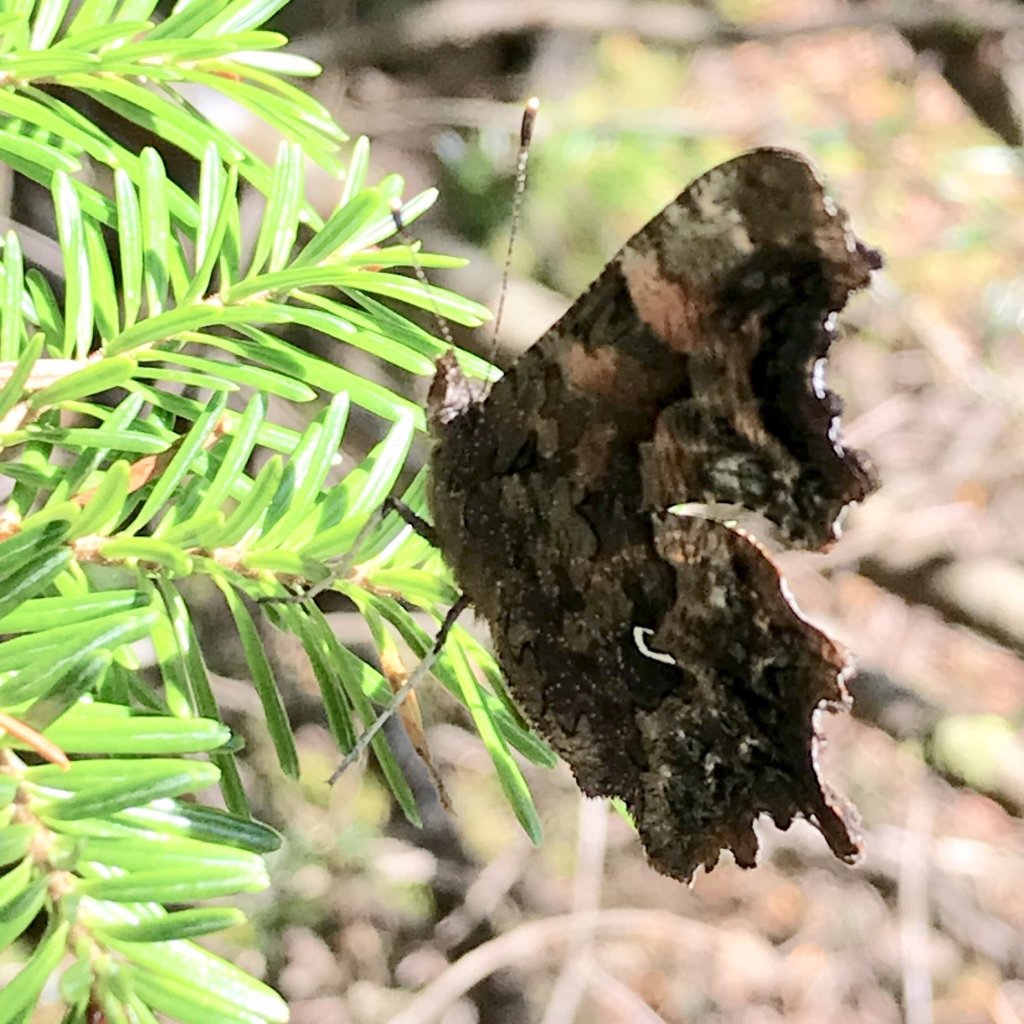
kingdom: Animalia
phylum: Arthropoda
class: Insecta
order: Lepidoptera
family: Nymphalidae
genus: Polygonia
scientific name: Polygonia faunus
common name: Green Comma
